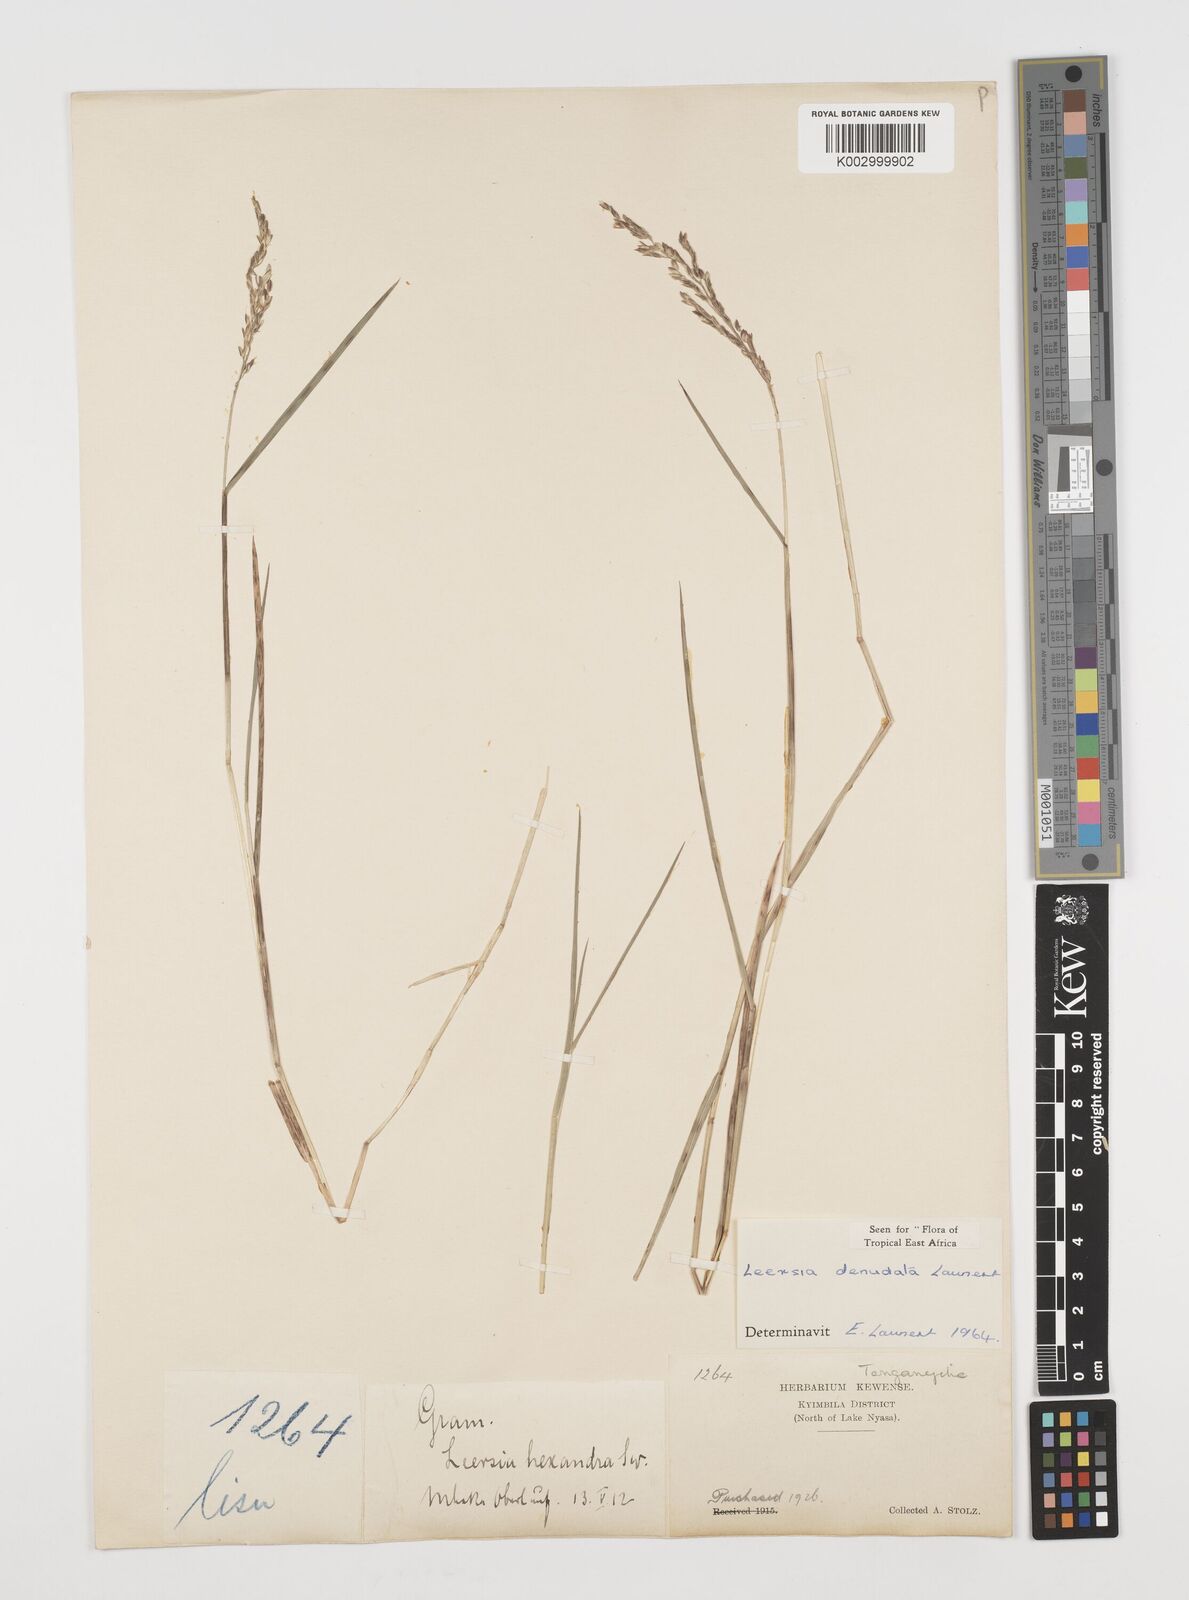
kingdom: Plantae
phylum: Tracheophyta
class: Liliopsida
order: Poales
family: Poaceae
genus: Leersia
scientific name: Leersia denudata
